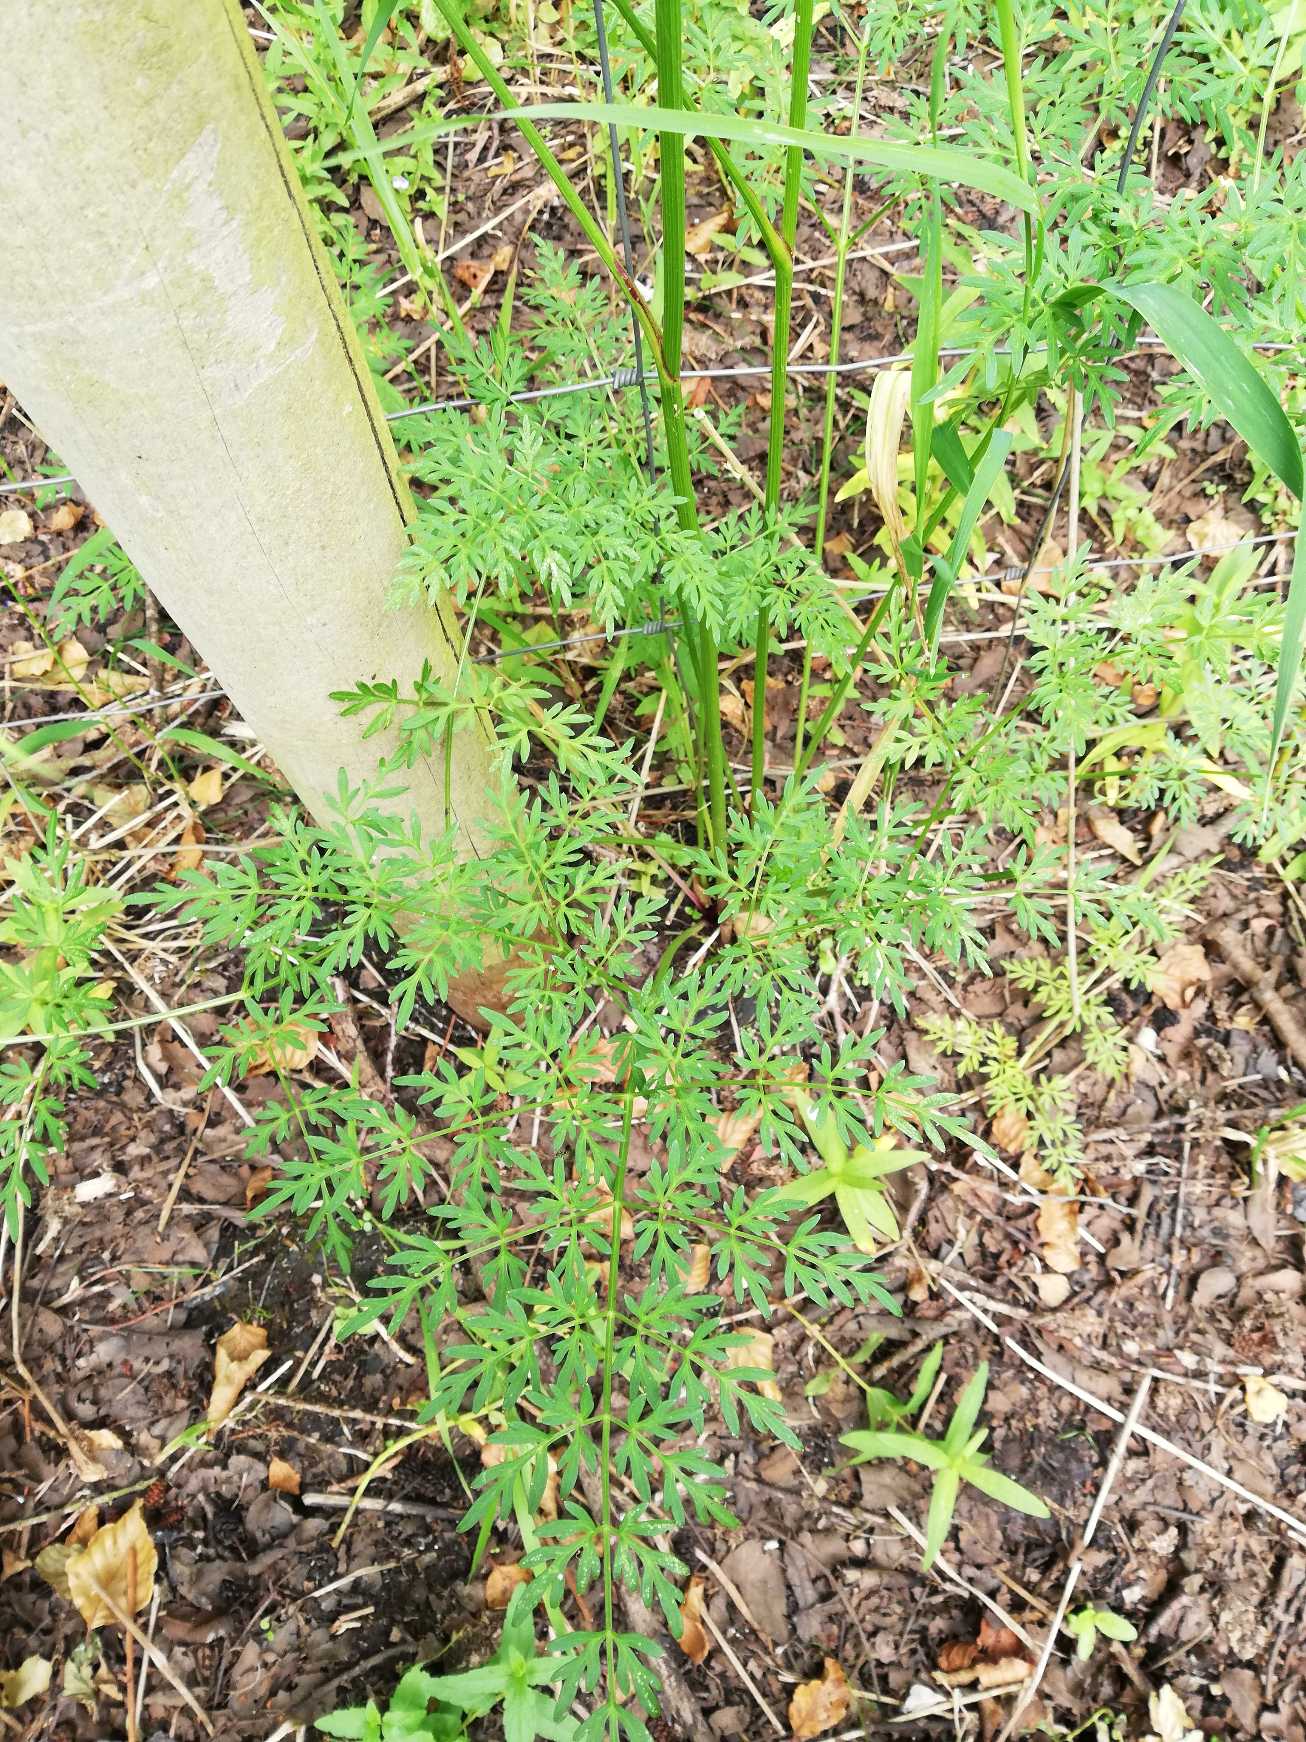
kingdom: Plantae
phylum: Tracheophyta
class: Magnoliopsida
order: Apiales
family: Apiaceae
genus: Thysselinum
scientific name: Thysselinum palustre
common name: Kær-svovlrod
